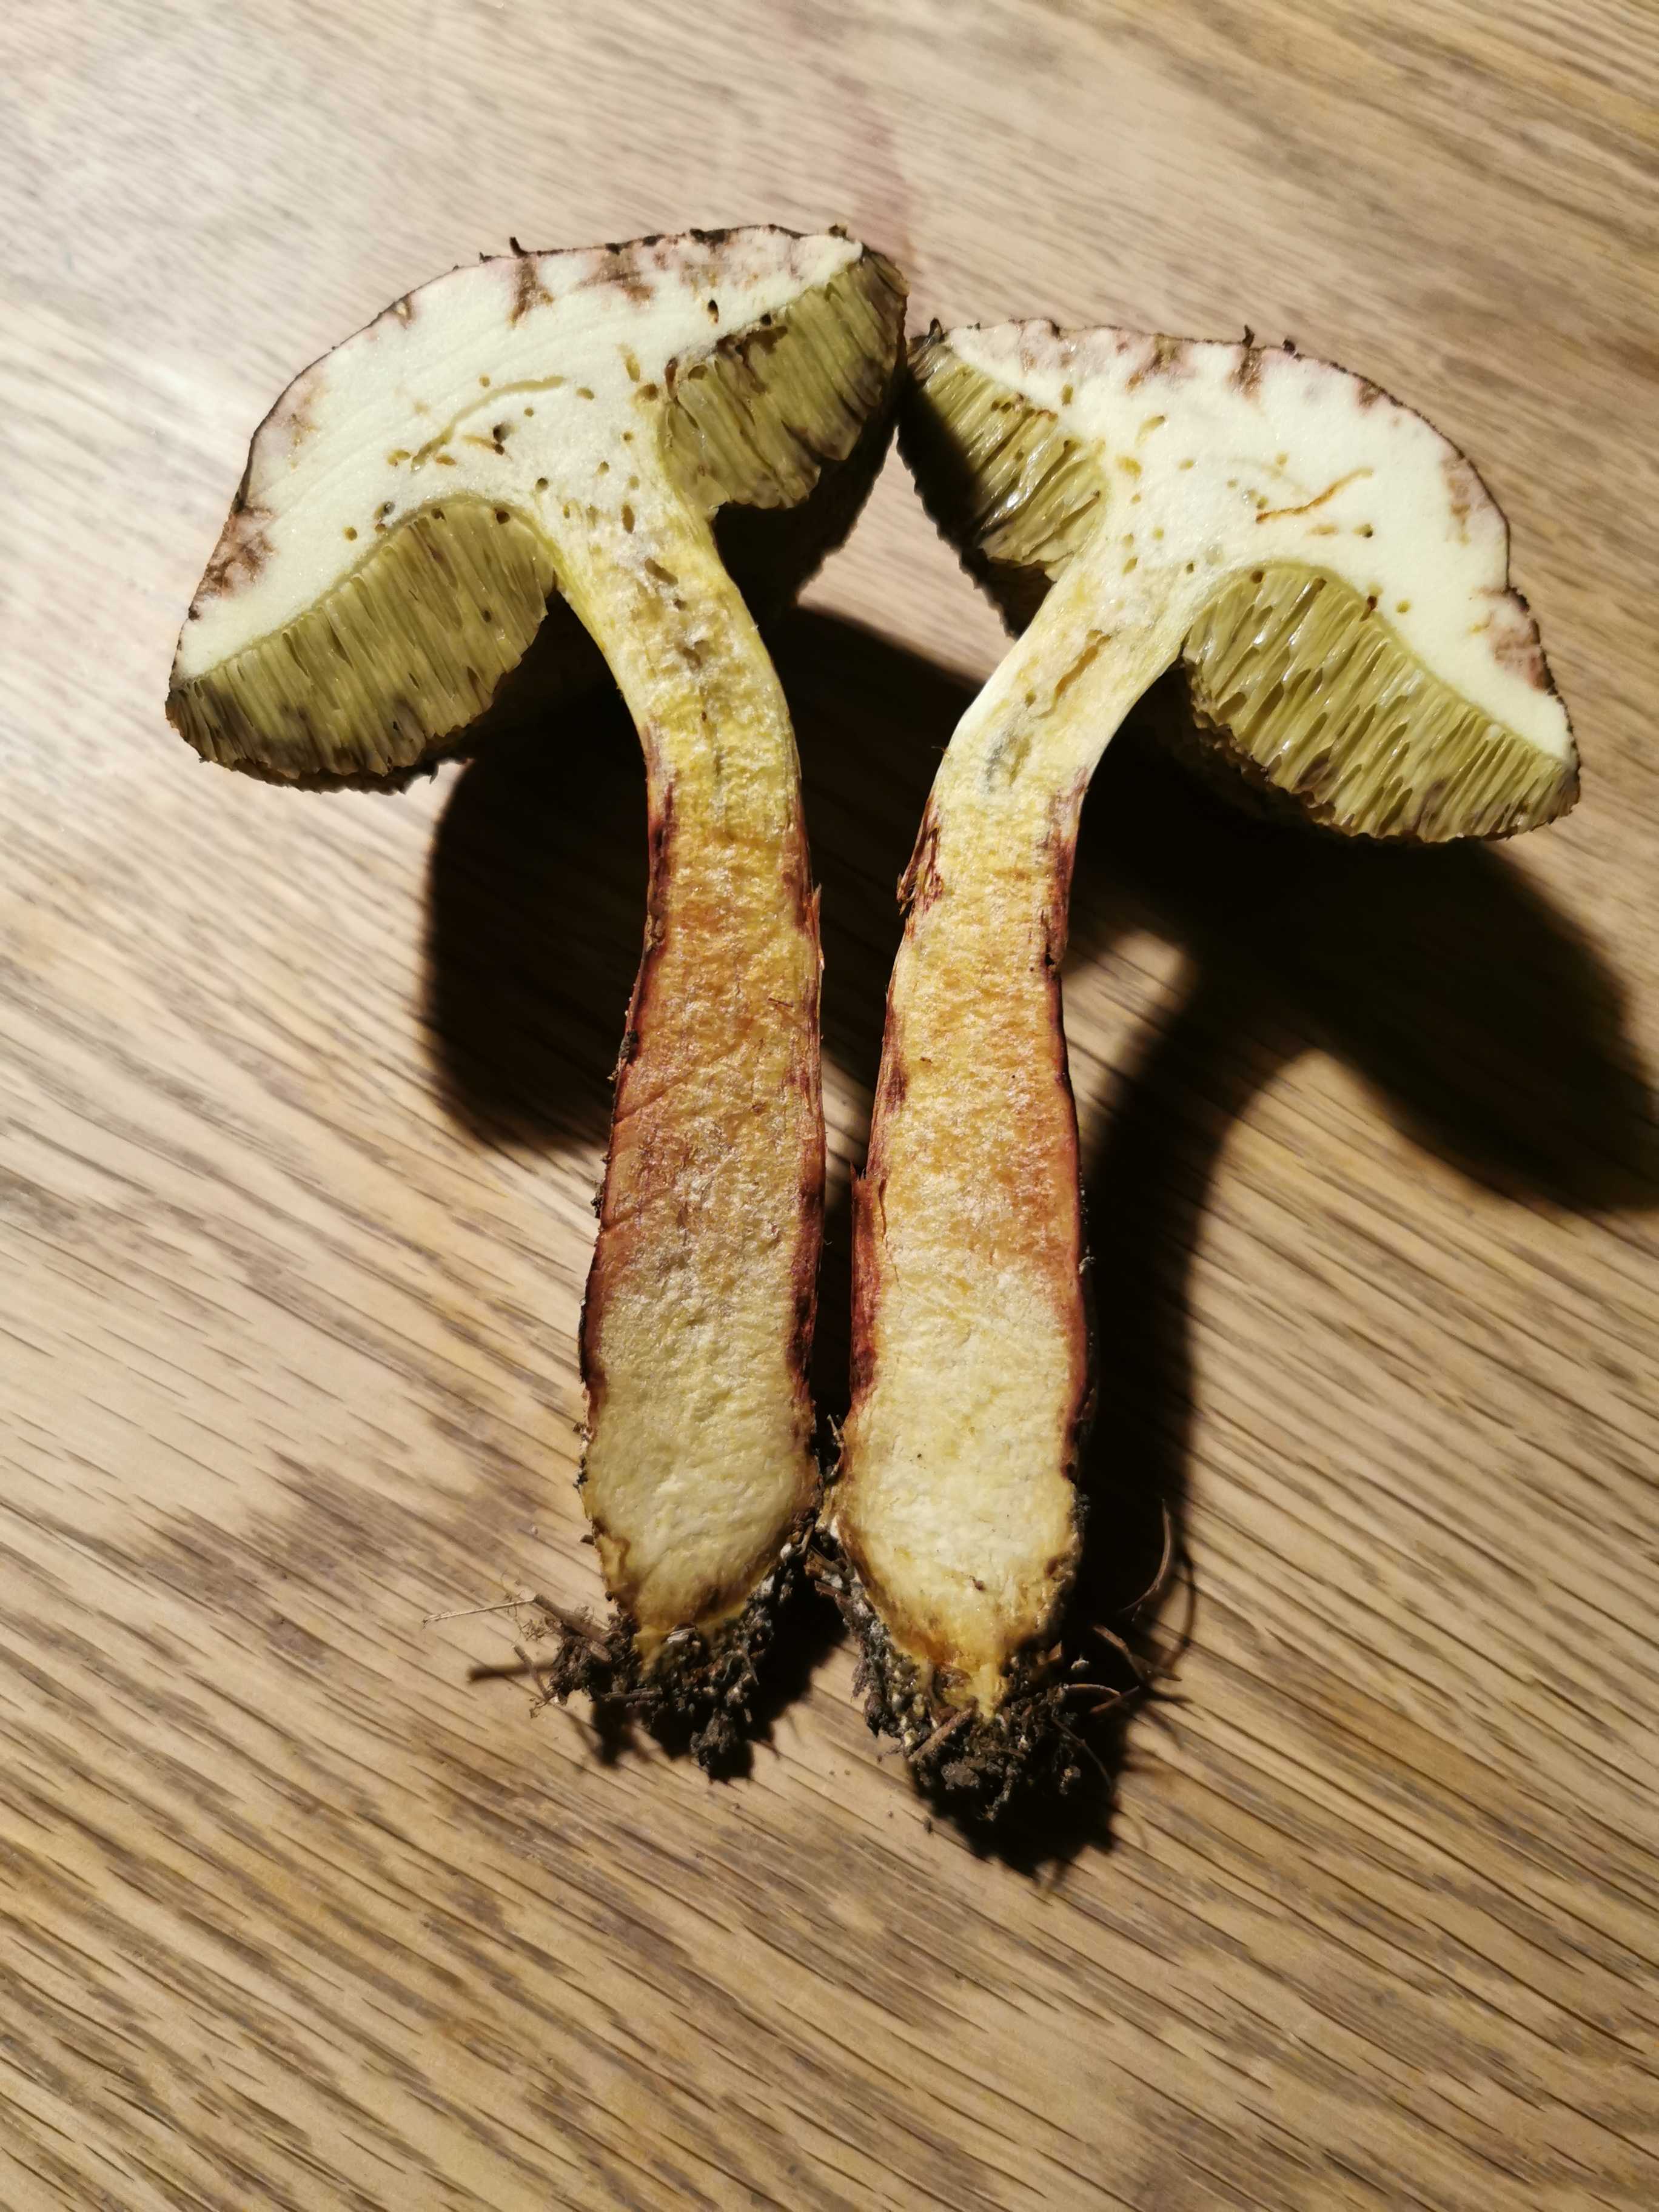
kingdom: Fungi
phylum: Basidiomycota
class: Agaricomycetes
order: Boletales
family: Boletaceae
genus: Xerocomellus
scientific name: Xerocomellus chrysenteron
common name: rødsprukken rørhat
